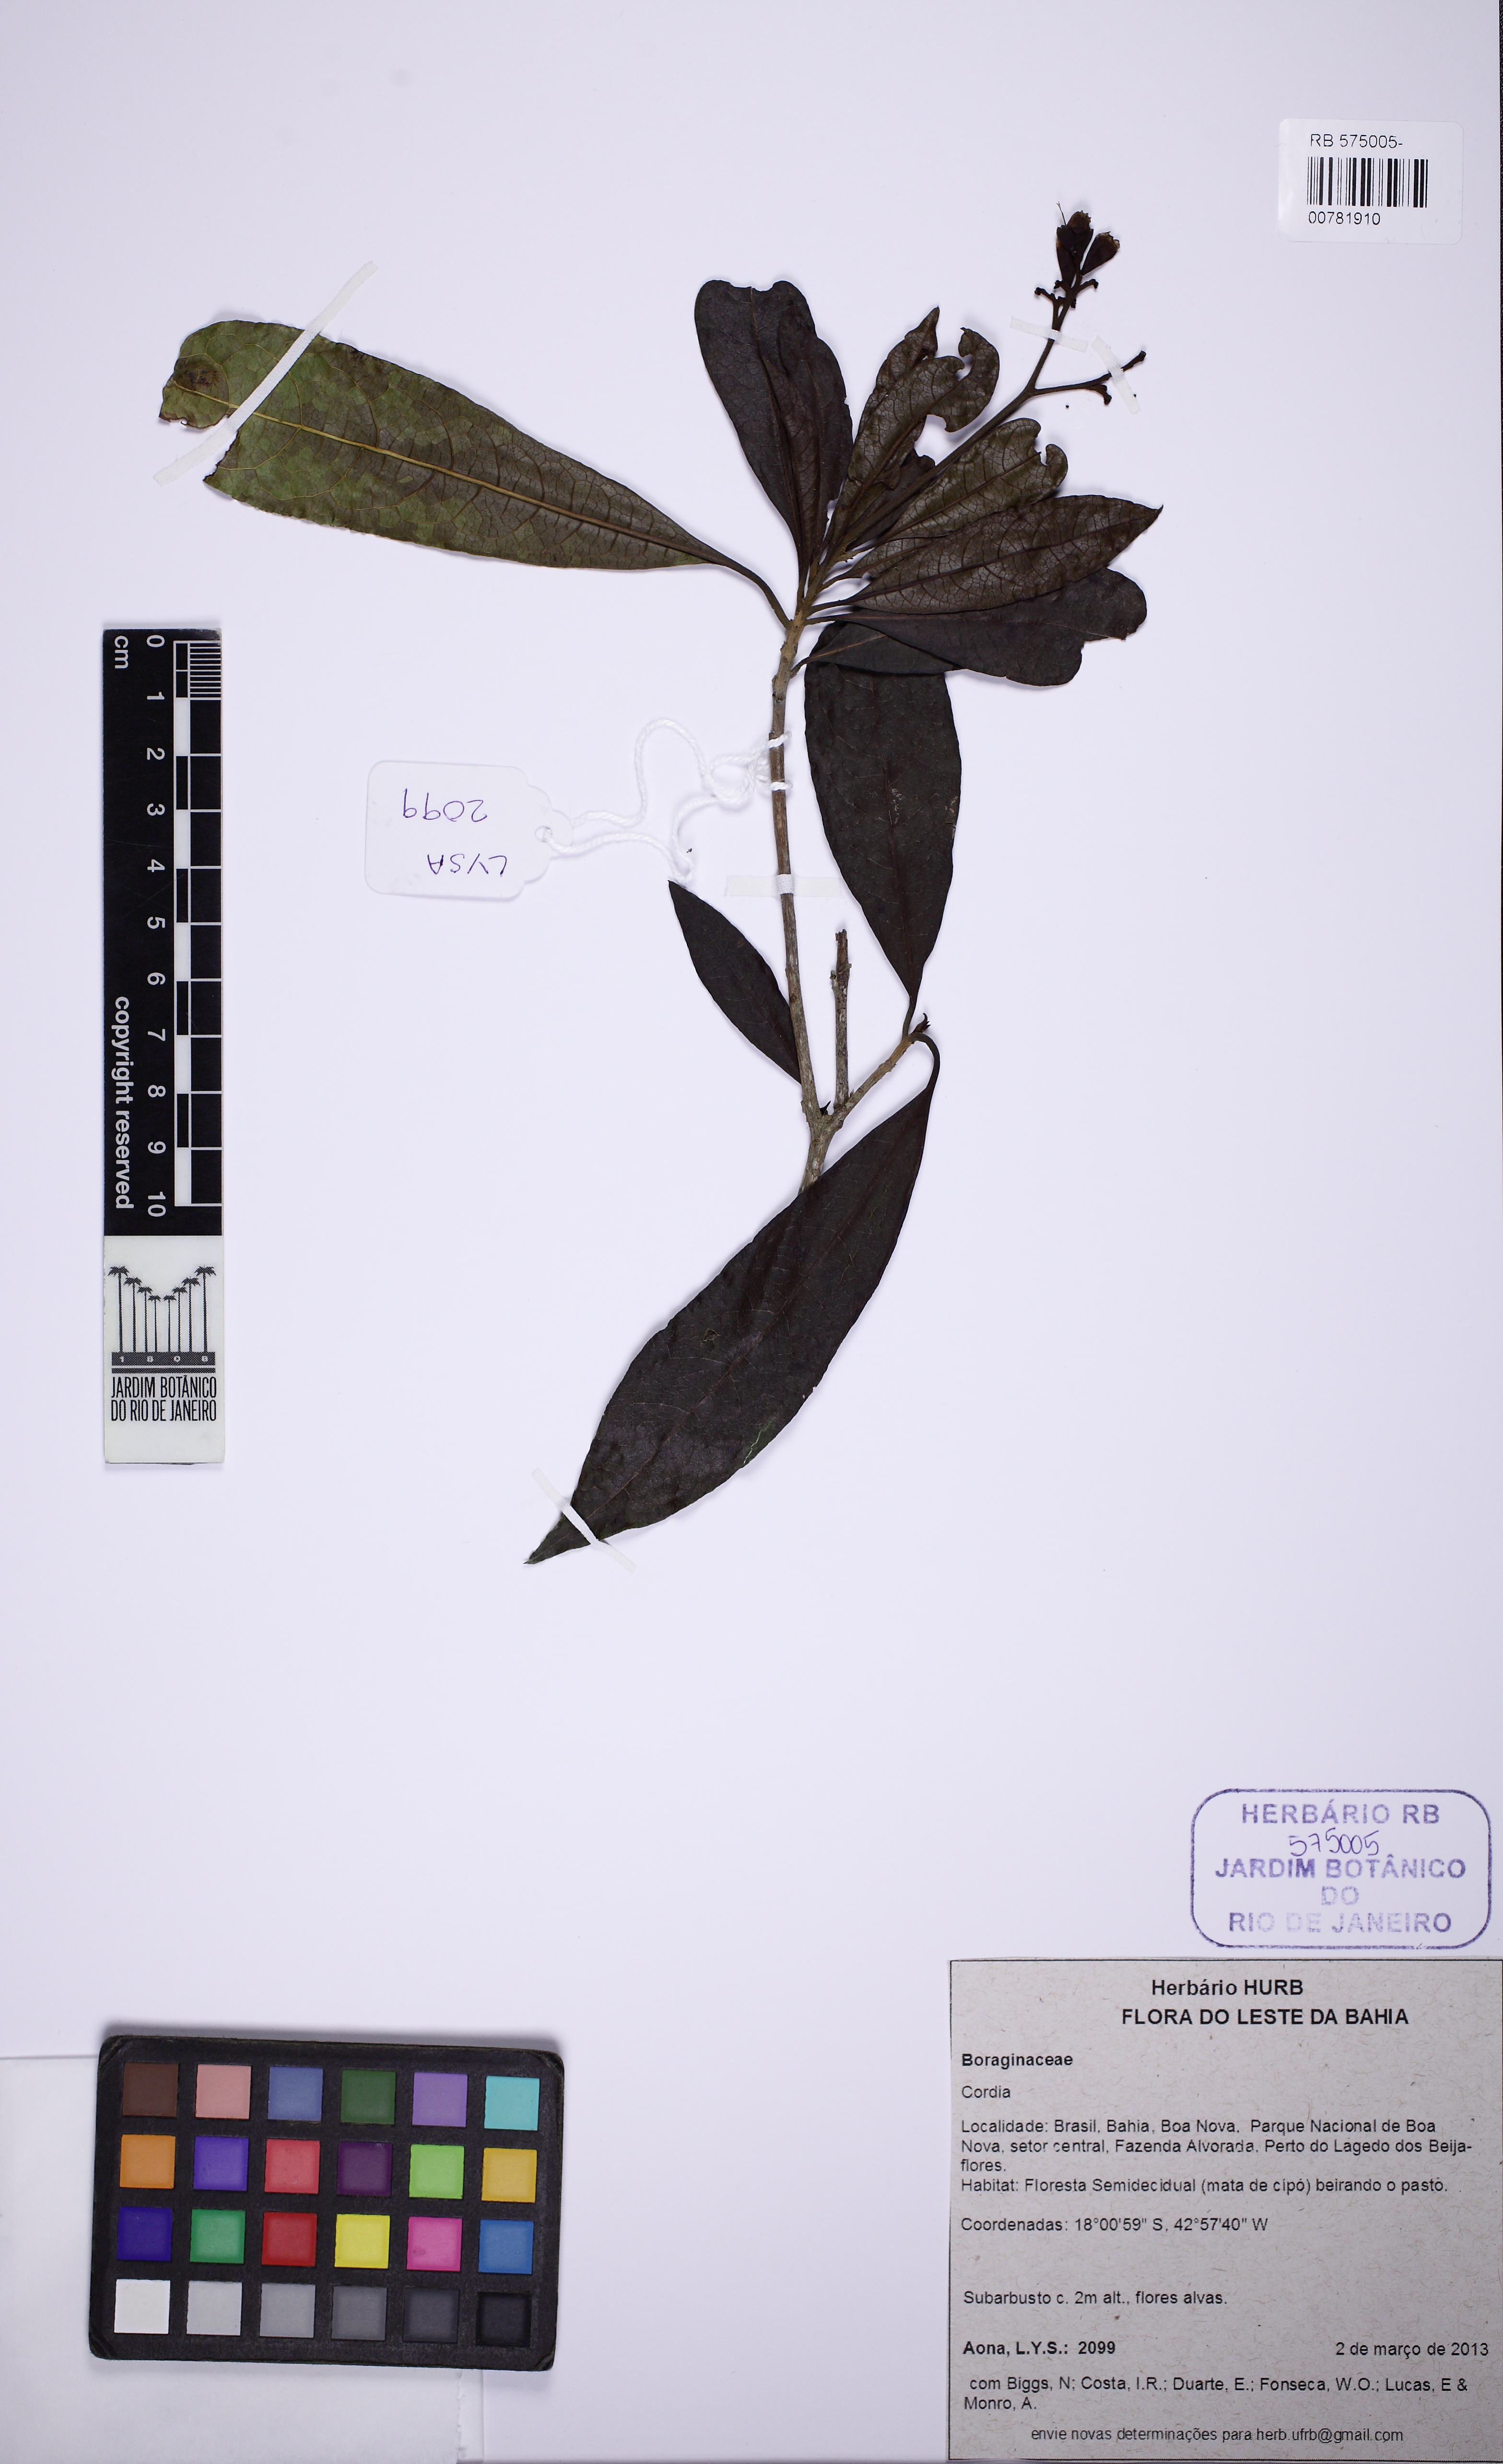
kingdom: Plantae
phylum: Tracheophyta
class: Magnoliopsida
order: Boraginales
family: Cordiaceae
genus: Cordia
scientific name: Cordia
